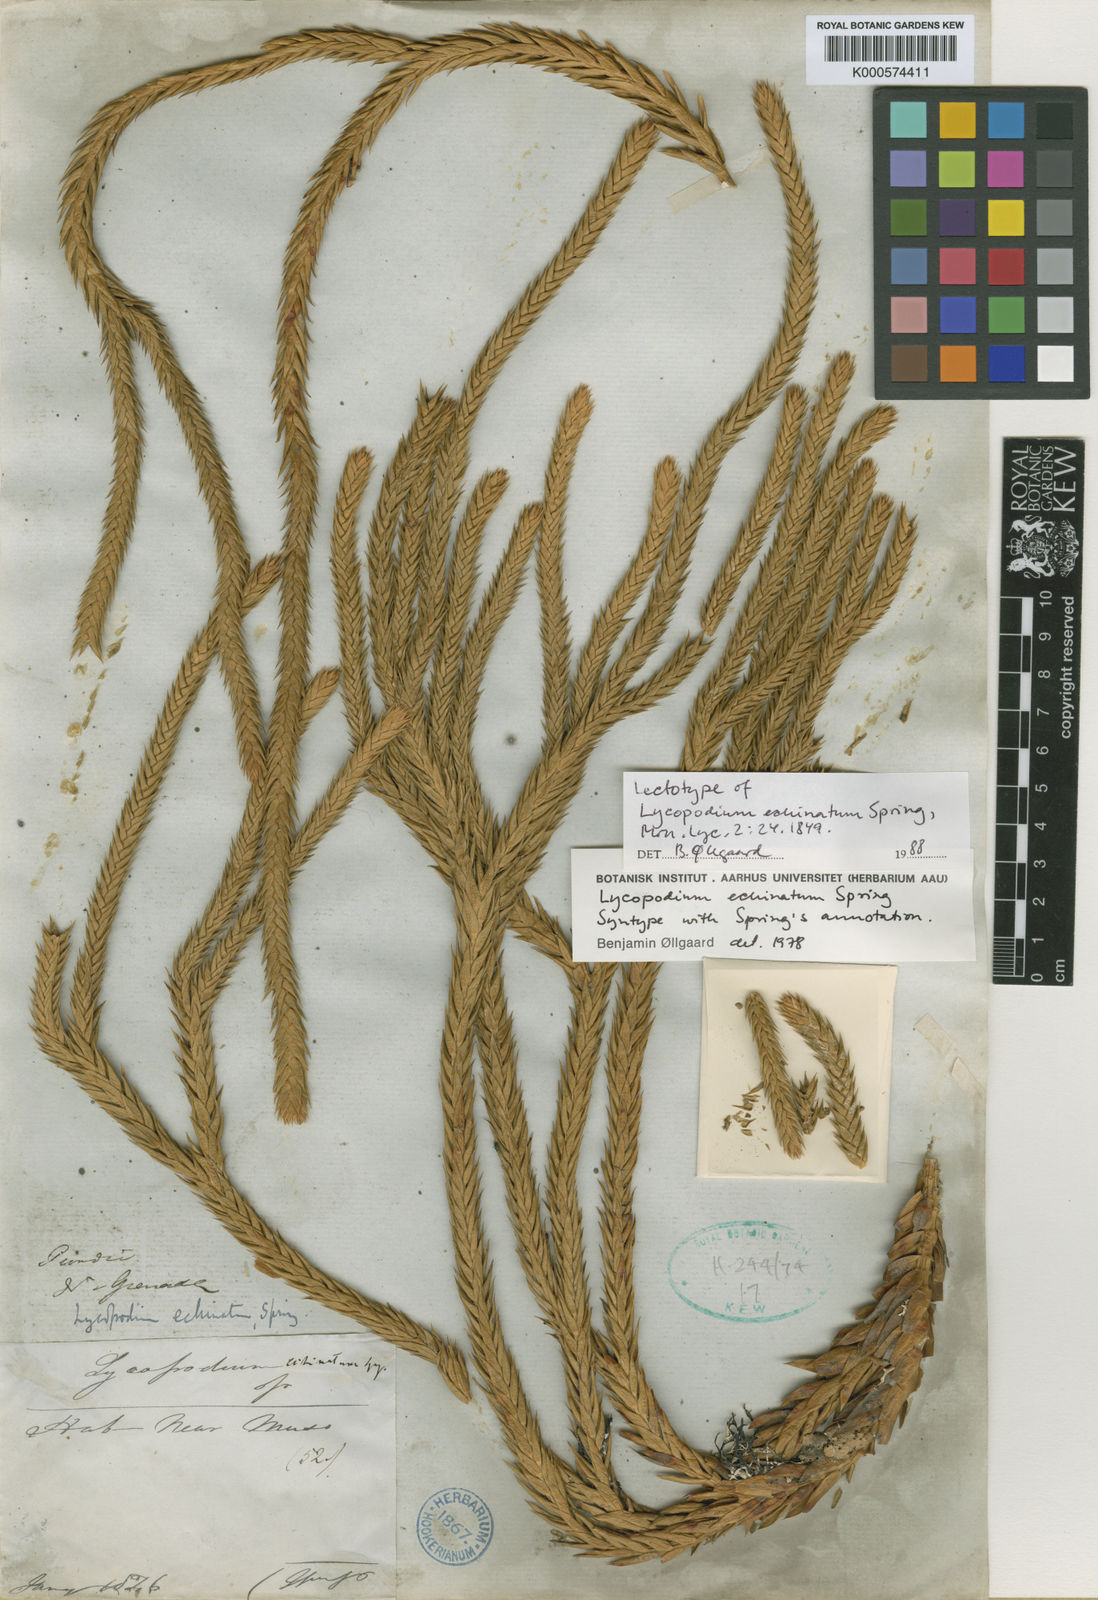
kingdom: Plantae
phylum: Tracheophyta
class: Lycopodiopsida
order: Lycopodiales
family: Lycopodiaceae
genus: Phlegmariurus
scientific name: Phlegmariurus echinatus
